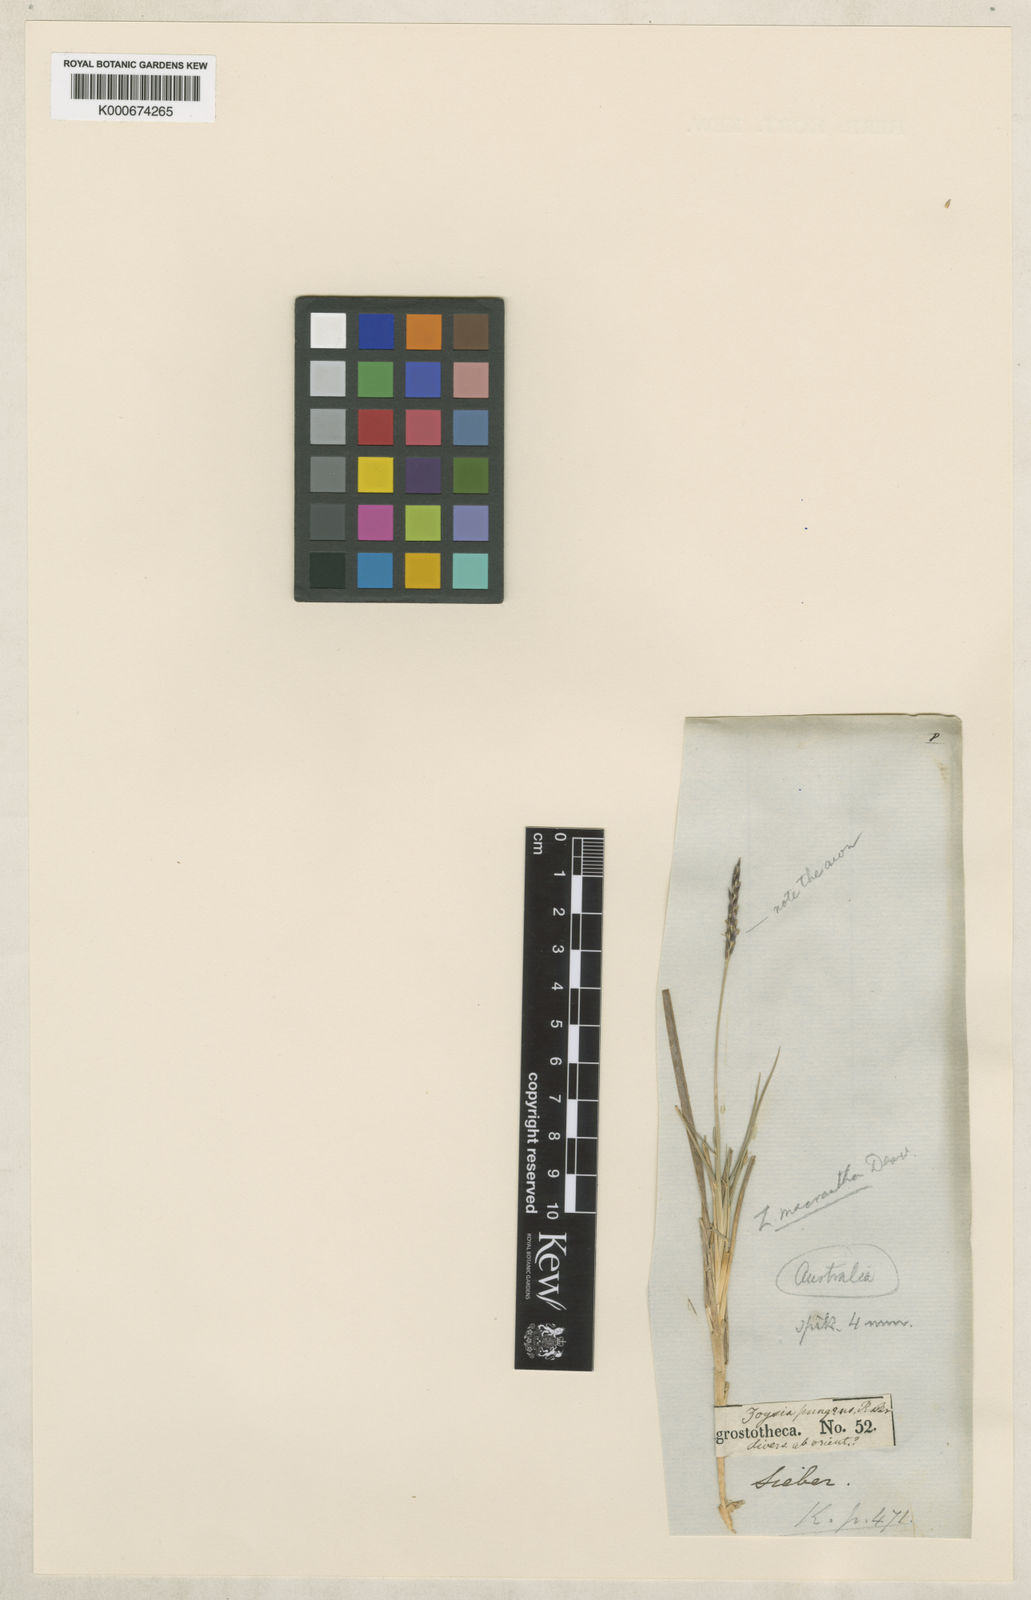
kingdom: Plantae
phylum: Tracheophyta
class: Liliopsida
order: Poales
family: Poaceae
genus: Zoysia
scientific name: Zoysia macrantha
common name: Korean lawn grass
